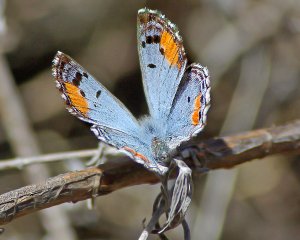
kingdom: Animalia
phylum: Arthropoda
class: Insecta
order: Lepidoptera
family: Lycaenidae
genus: Philotes
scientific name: Philotes sonorensis
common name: Sonoran Blue
